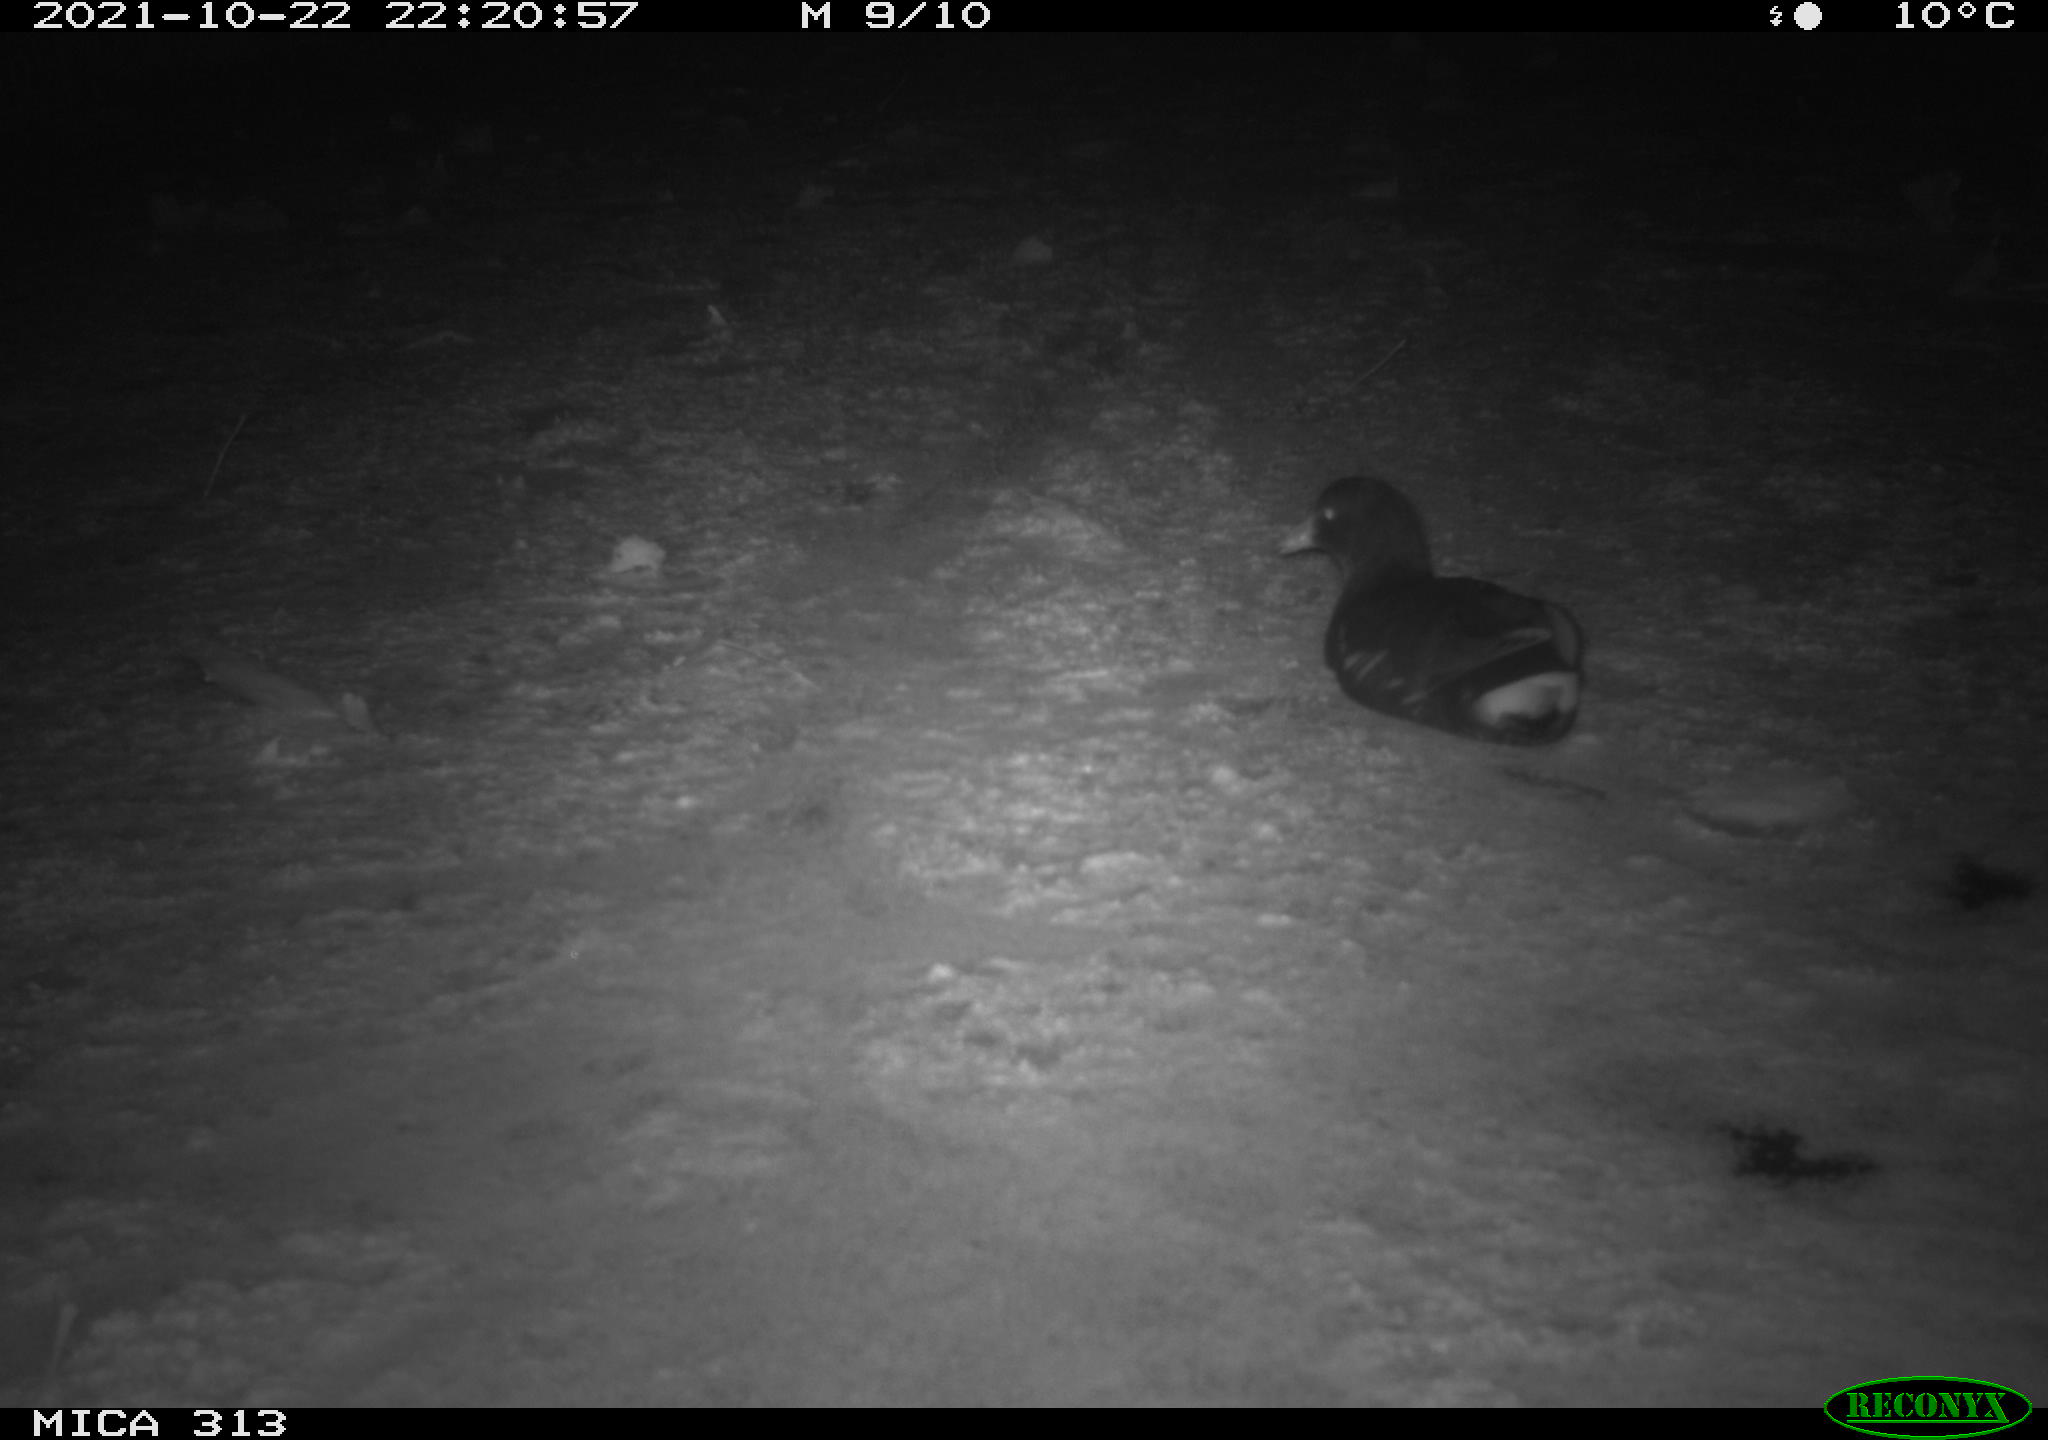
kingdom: Animalia
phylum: Chordata
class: Aves
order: Gruiformes
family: Rallidae
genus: Fulica
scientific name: Fulica atra
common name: Eurasian coot
